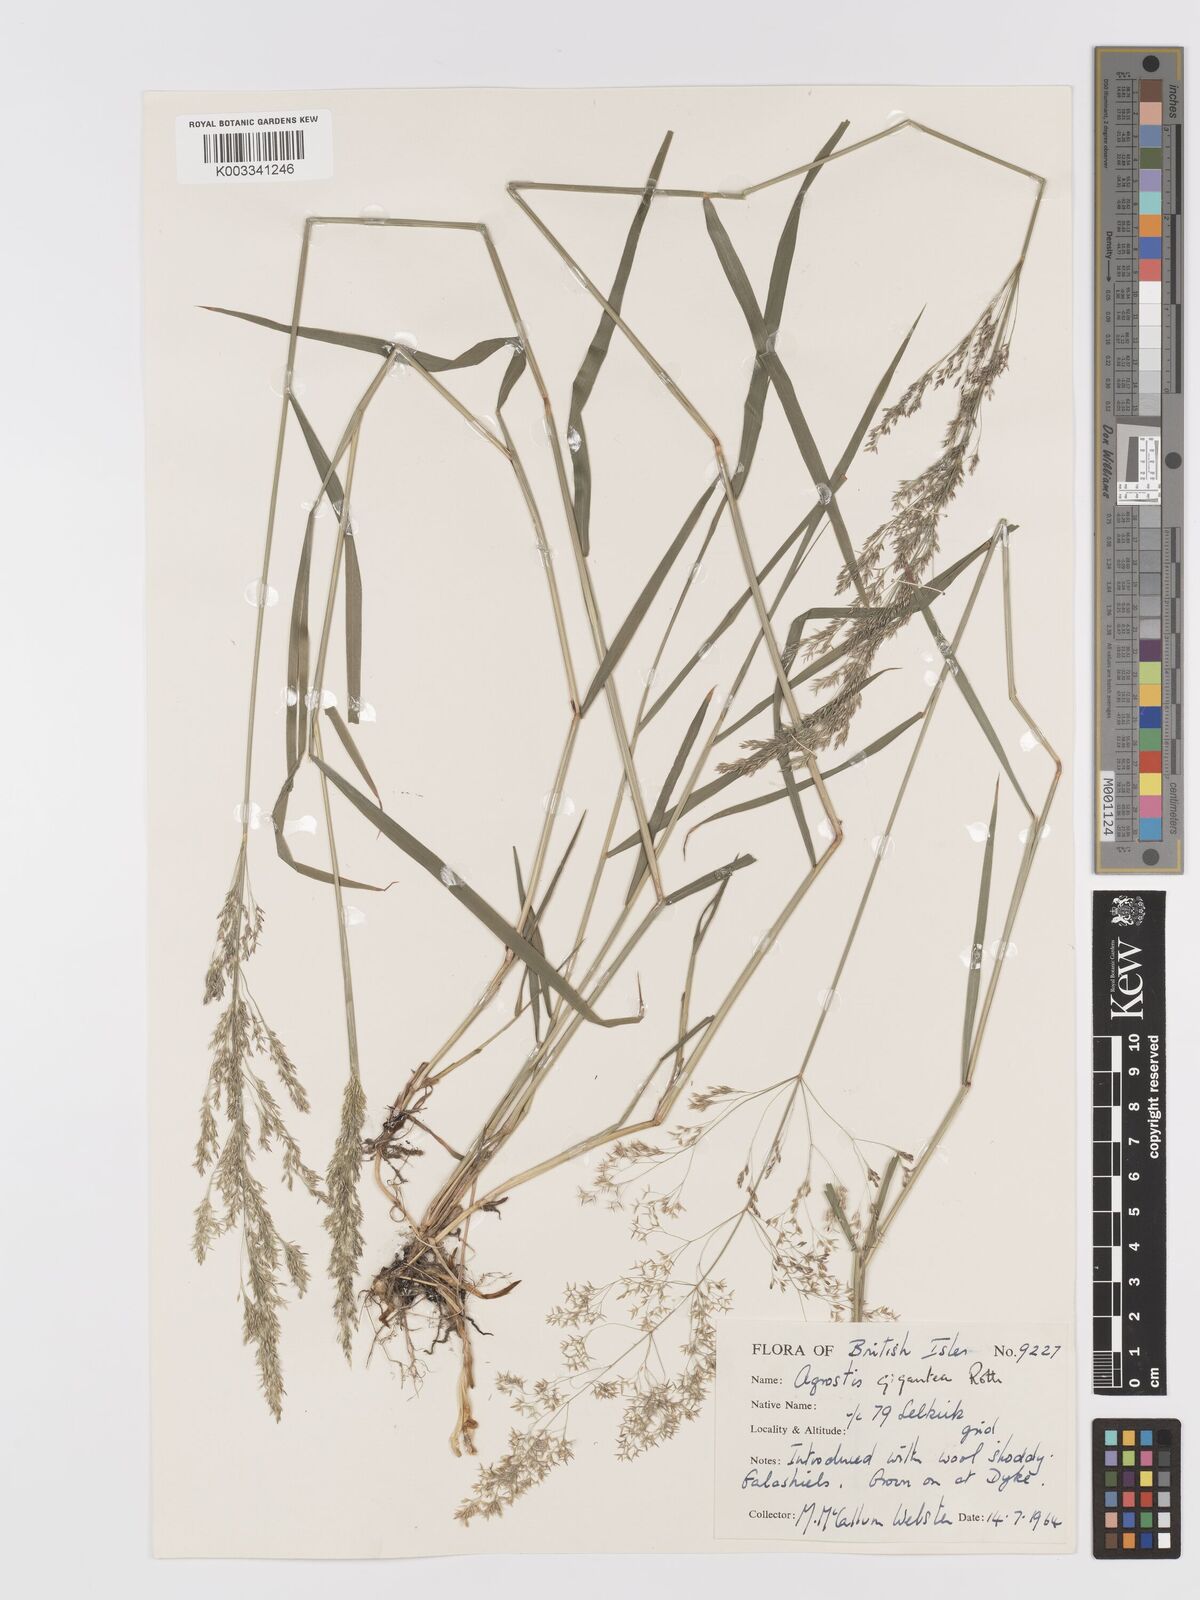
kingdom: Plantae
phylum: Tracheophyta
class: Liliopsida
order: Poales
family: Poaceae
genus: Agrostis
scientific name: Agrostis gigantea
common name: Black bent
